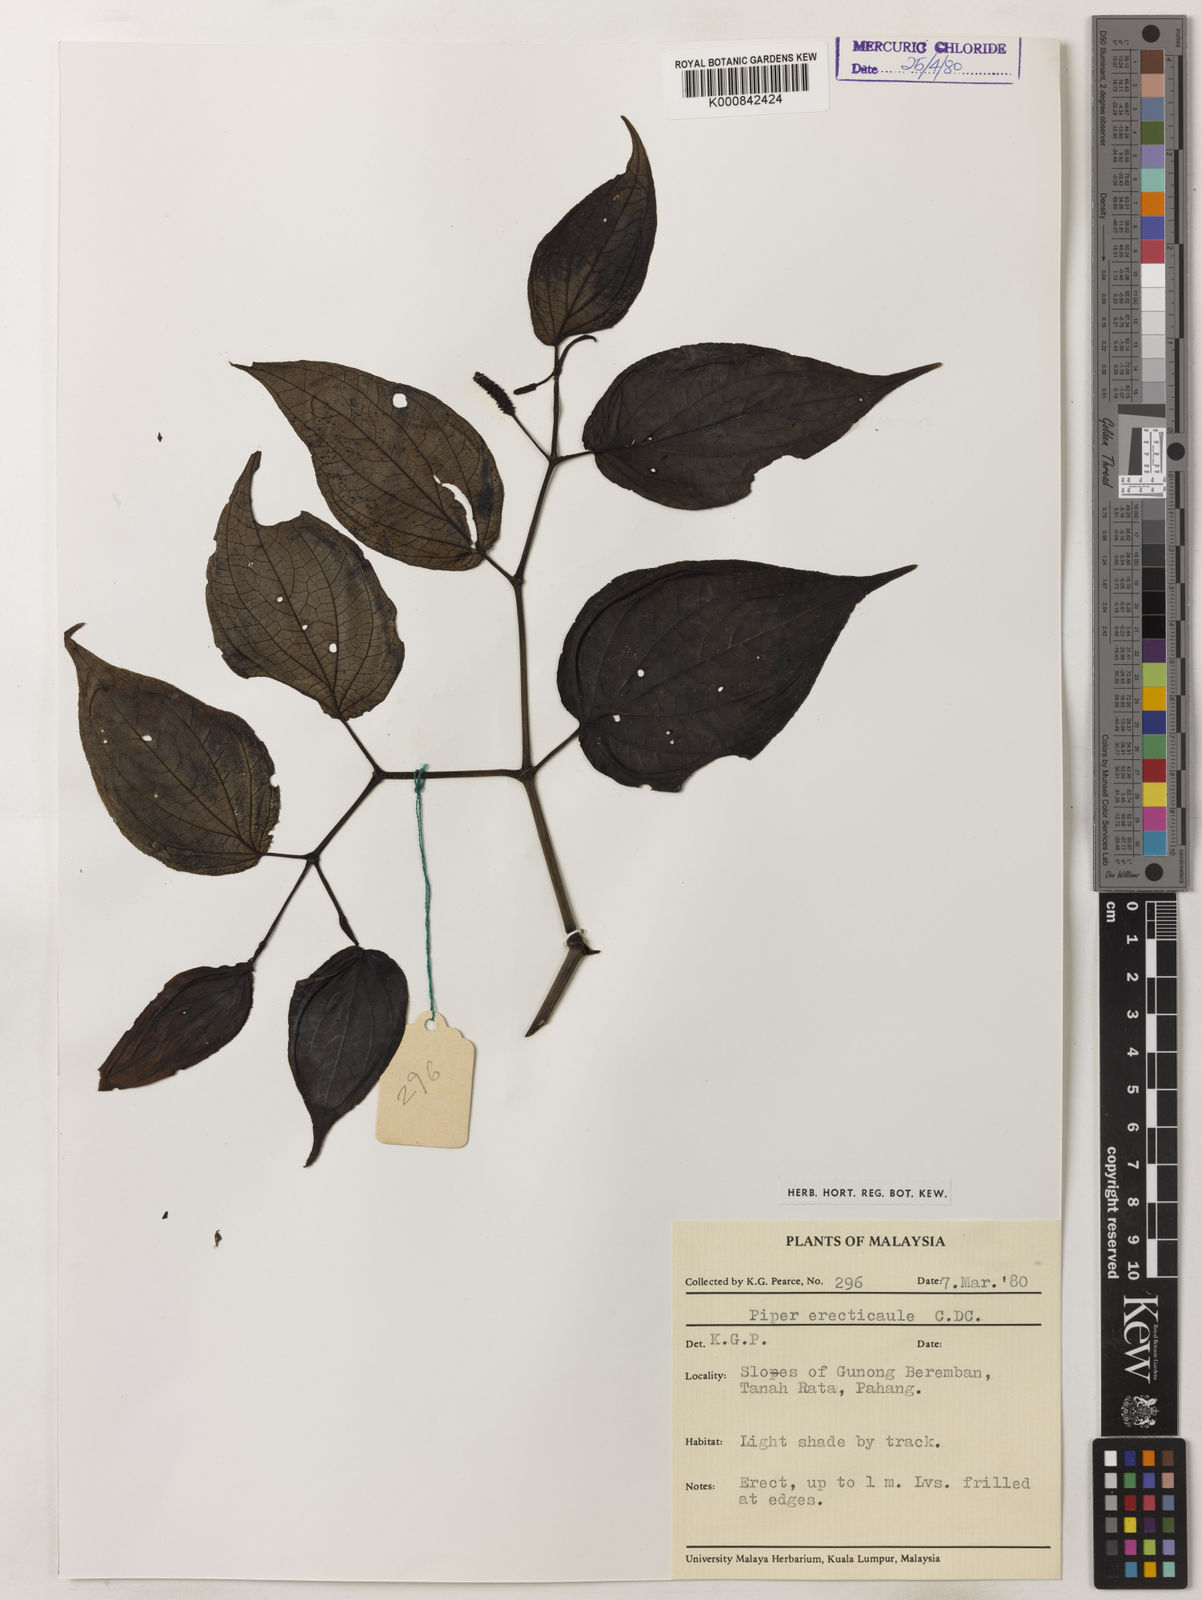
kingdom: Plantae
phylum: Tracheophyta
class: Magnoliopsida
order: Piperales
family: Piperaceae
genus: Piper
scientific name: Piper erecticaule
